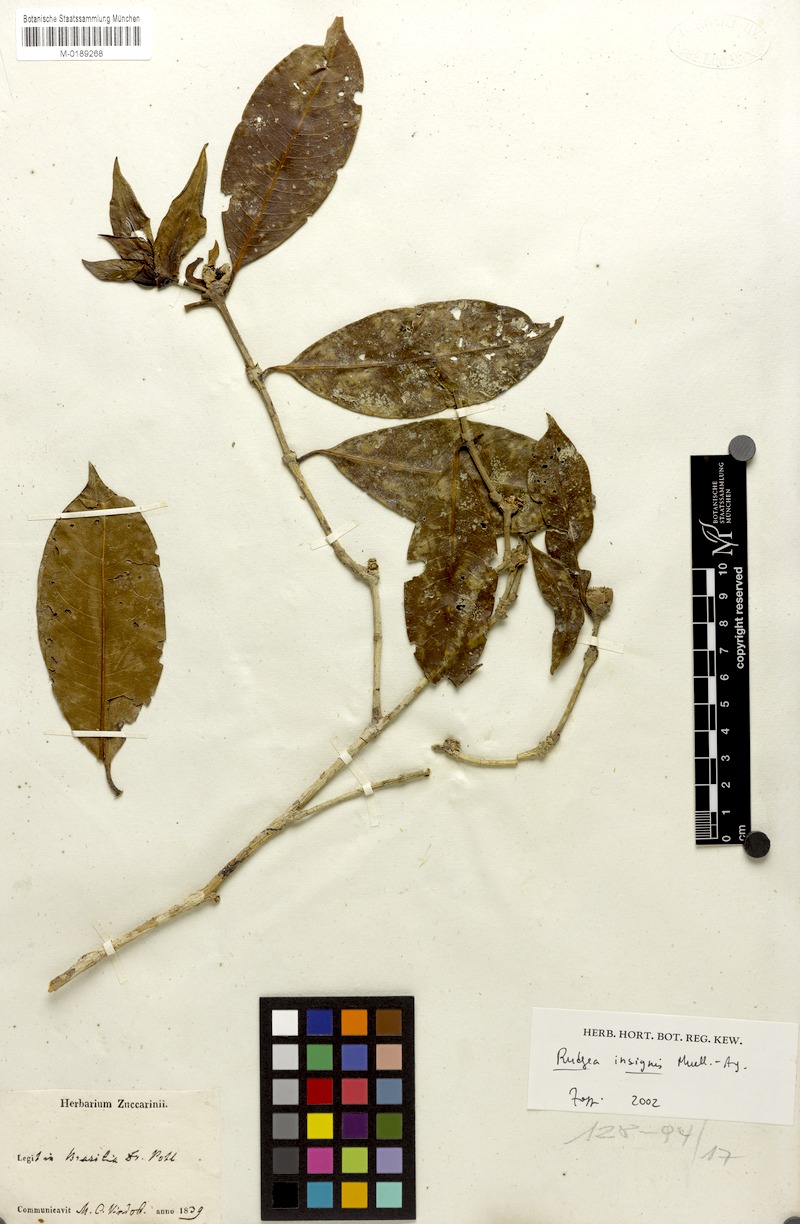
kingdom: Plantae
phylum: Tracheophyta
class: Magnoliopsida
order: Gentianales
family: Rubiaceae
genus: Rudgea
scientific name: Rudgea insignis
